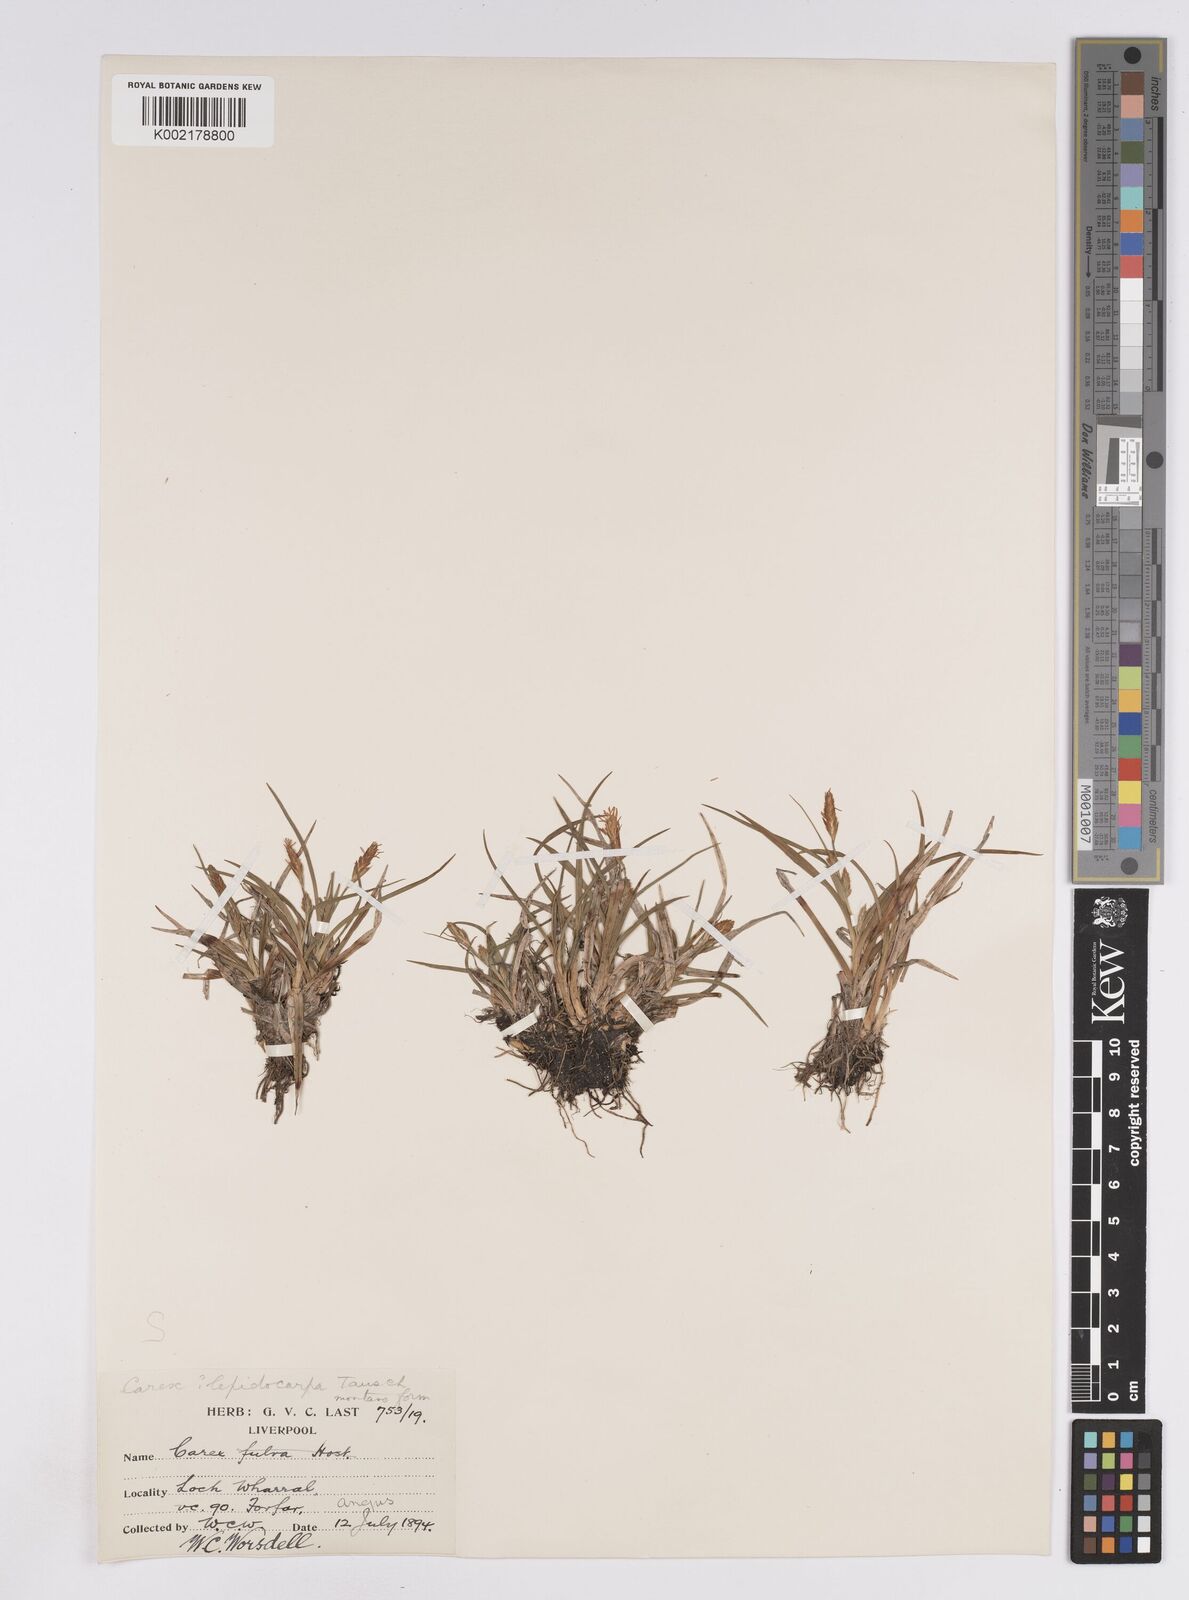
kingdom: Plantae
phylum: Tracheophyta
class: Liliopsida
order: Poales
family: Cyperaceae
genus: Carex
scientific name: Carex lepidocarpa
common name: Long-stalked yellow-sedge
